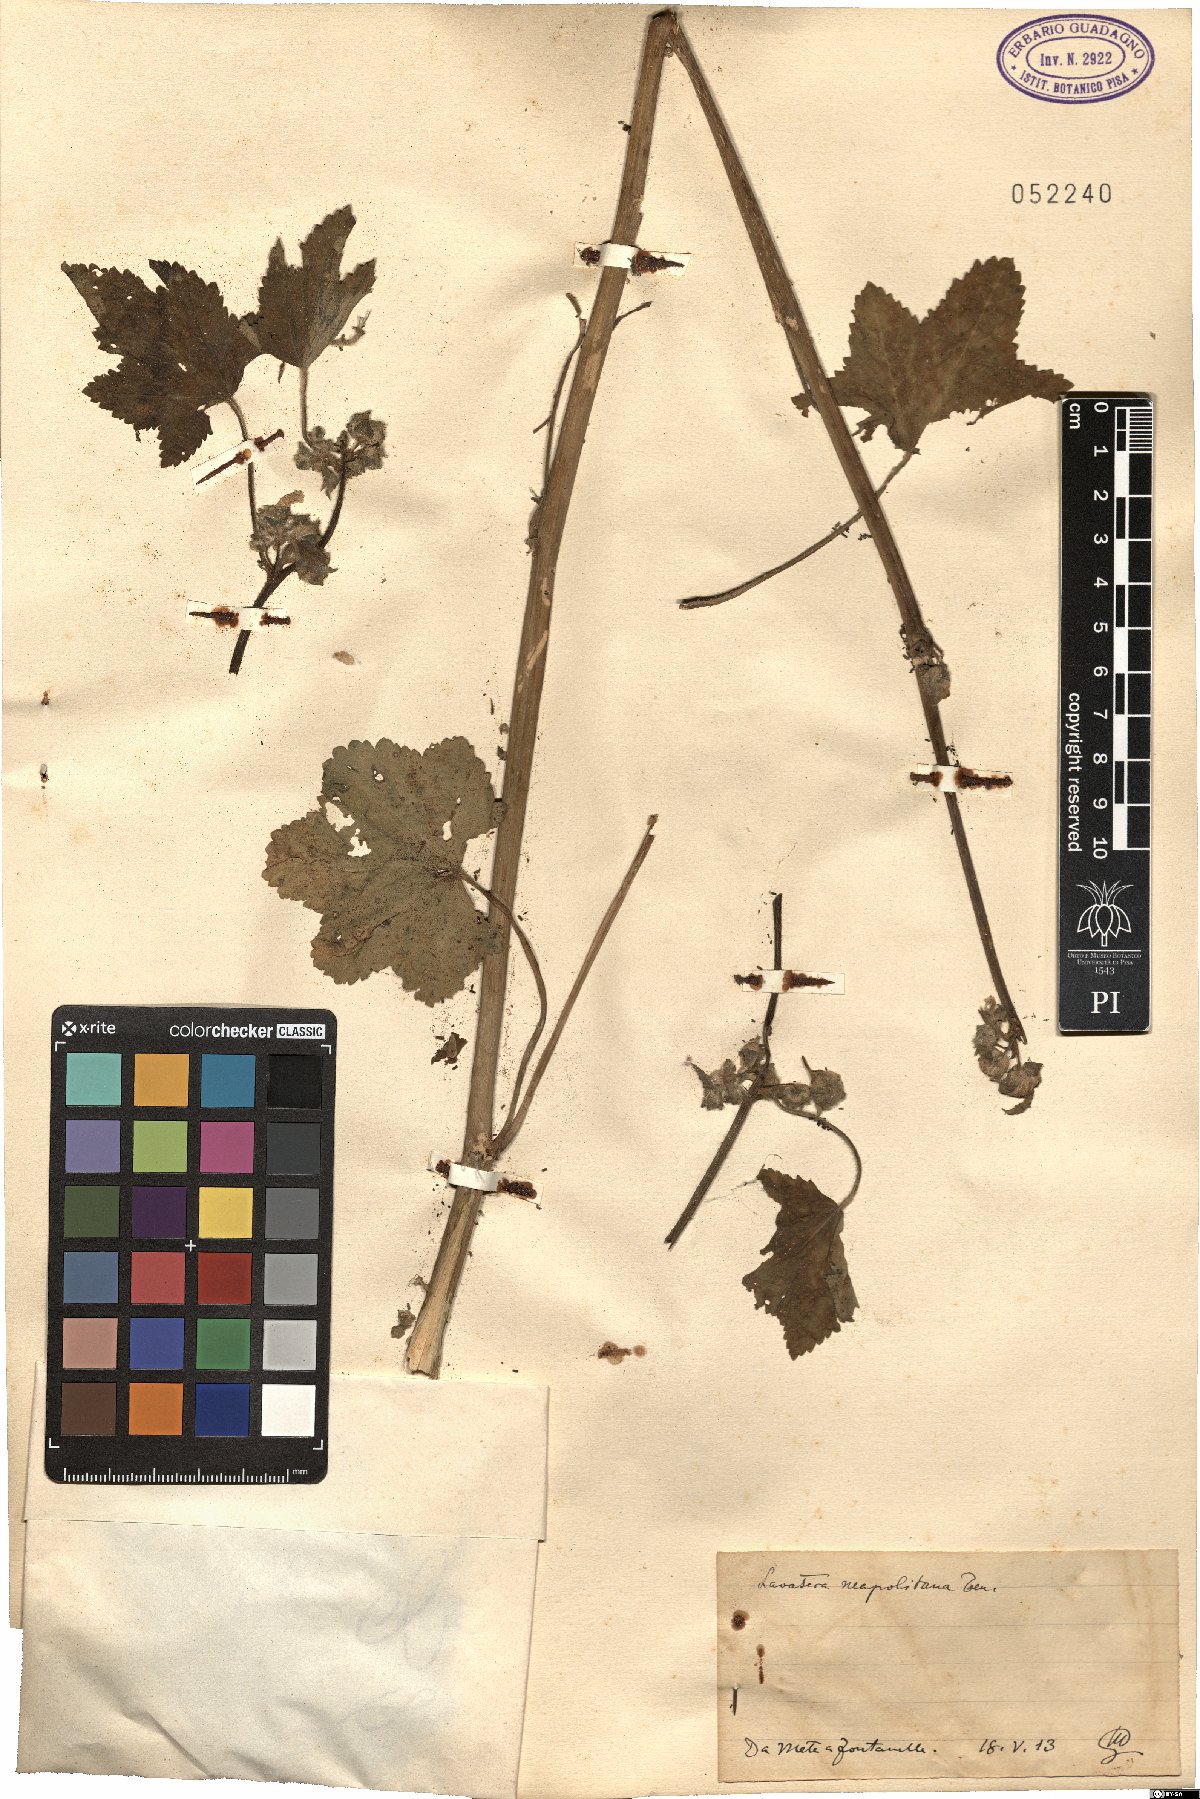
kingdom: Plantae
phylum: Tracheophyta
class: Magnoliopsida
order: Malvales
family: Malvaceae
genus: Malva
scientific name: Malva multiflora
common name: Cheeseweed
